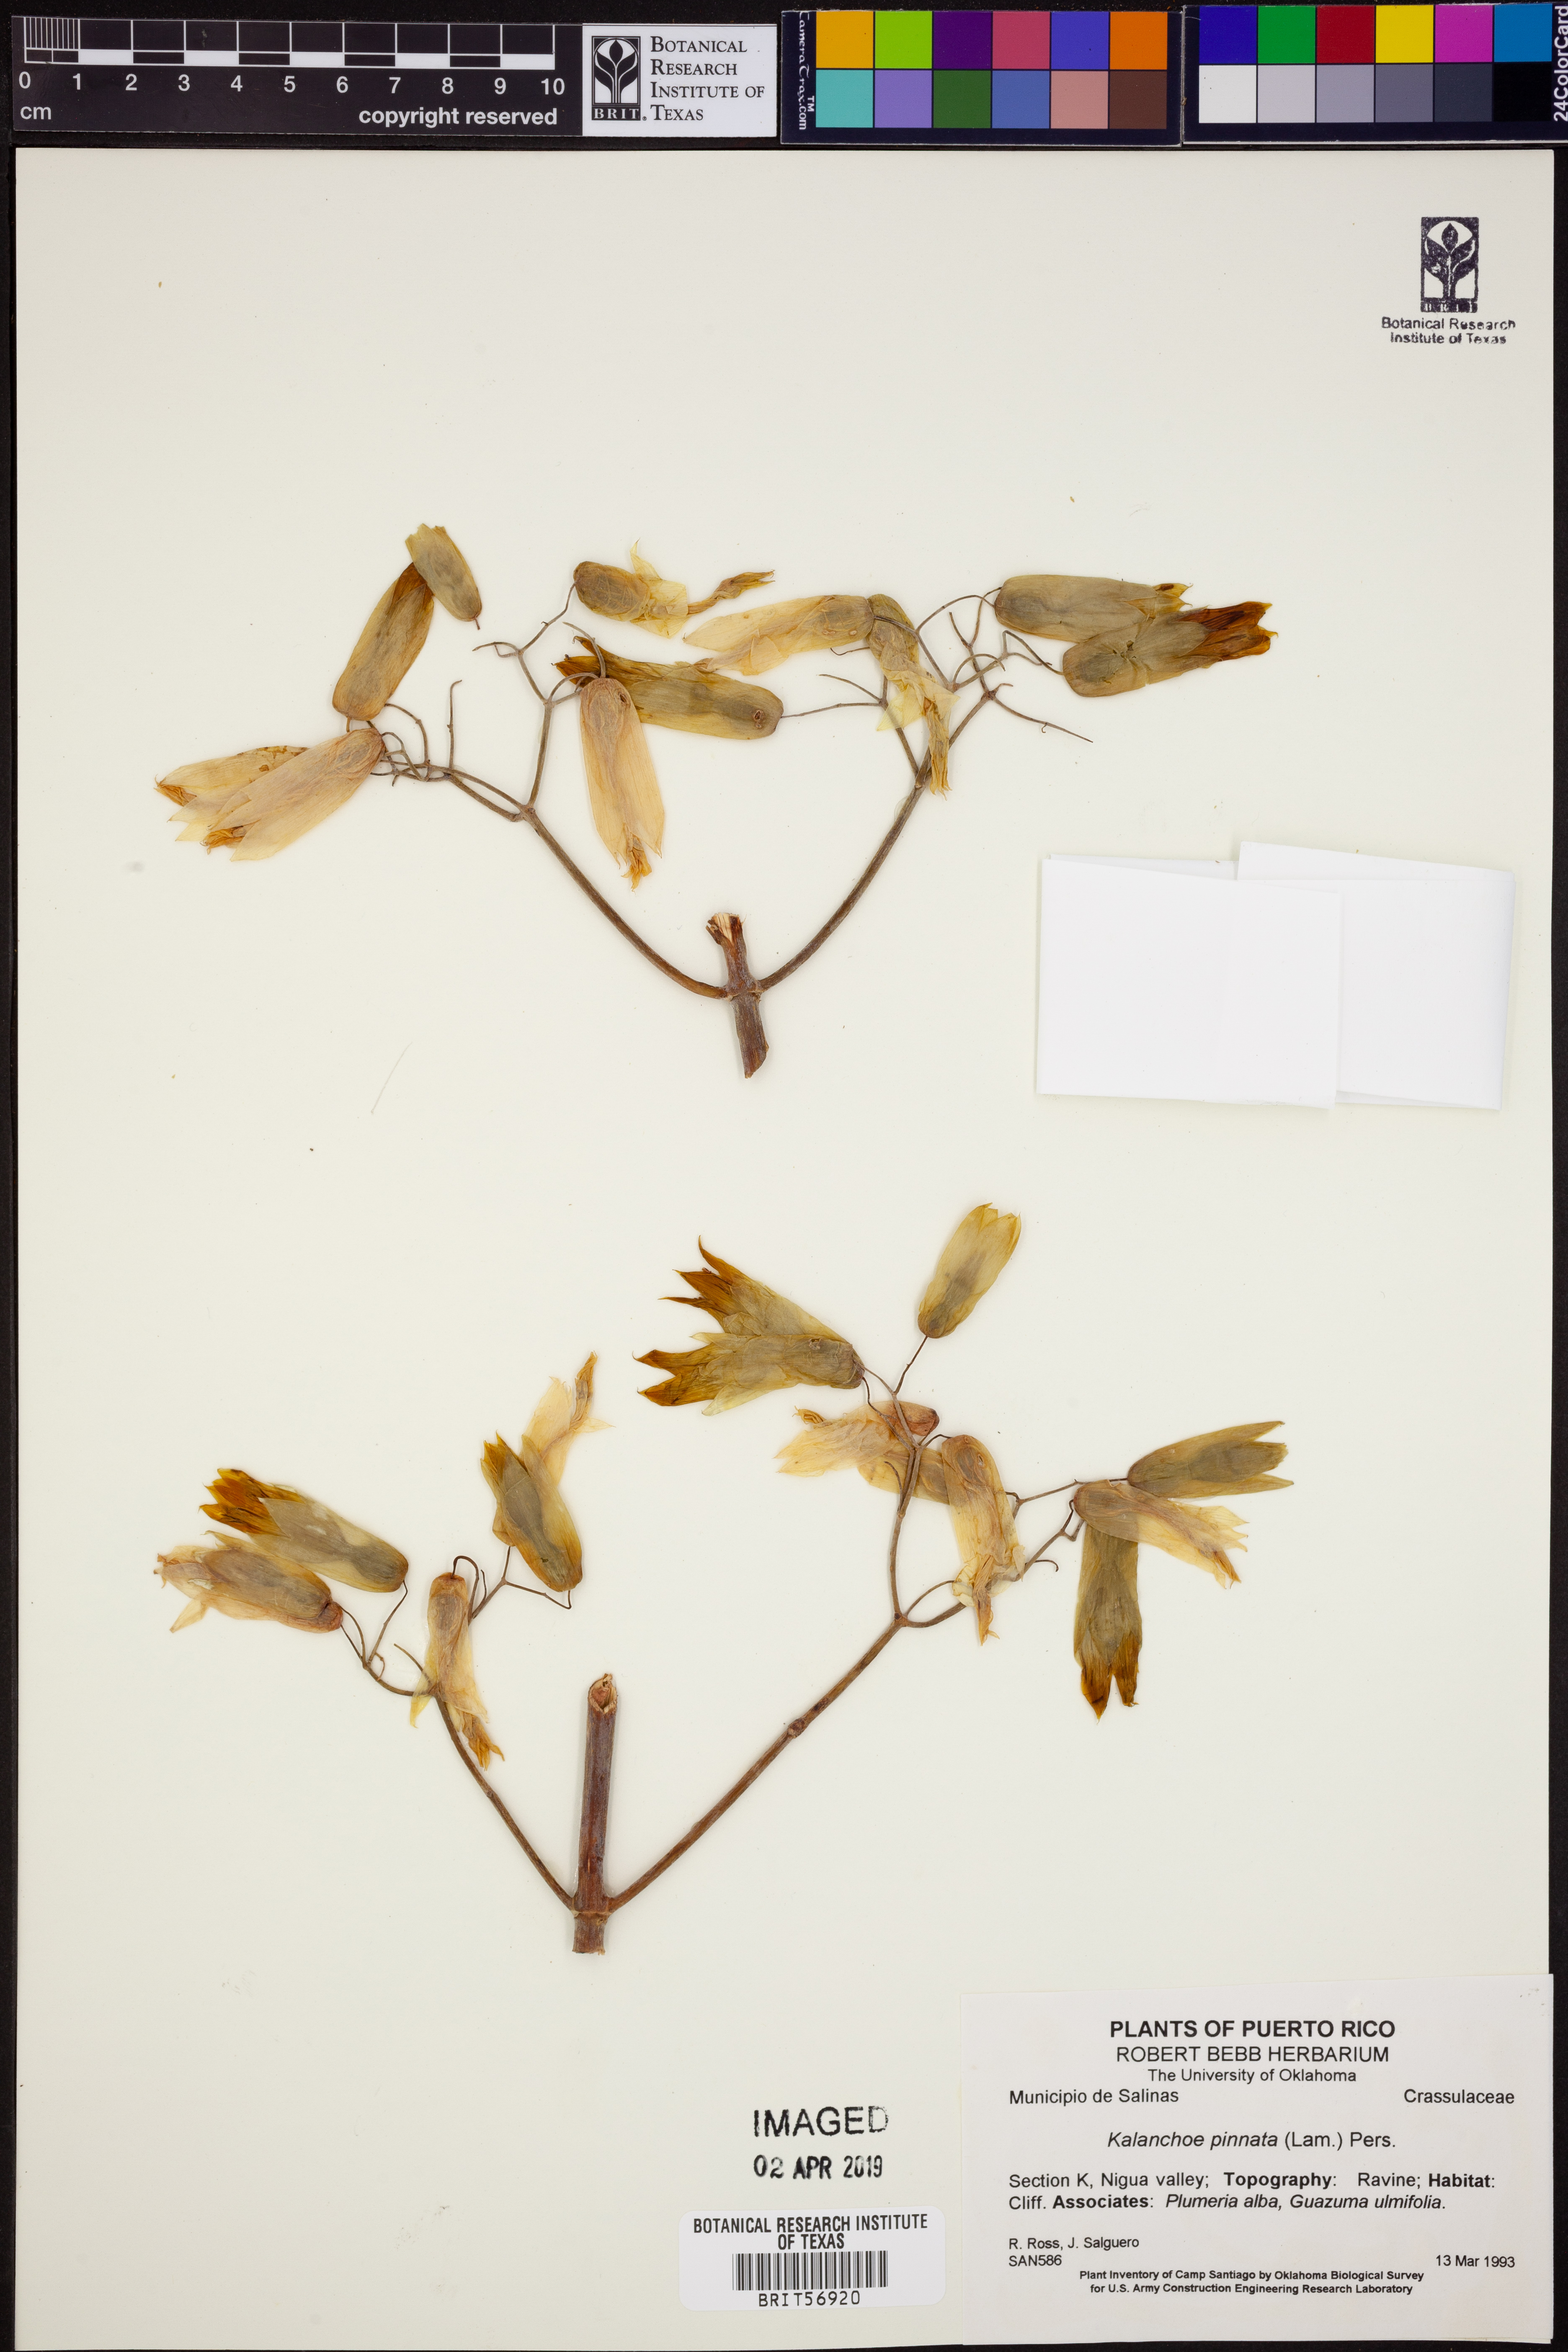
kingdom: Plantae
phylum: Tracheophyta
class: Magnoliopsida
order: Saxifragales
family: Crassulaceae
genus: Kalanchoe
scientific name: Kalanchoe pinnata
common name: Cathedral bells
